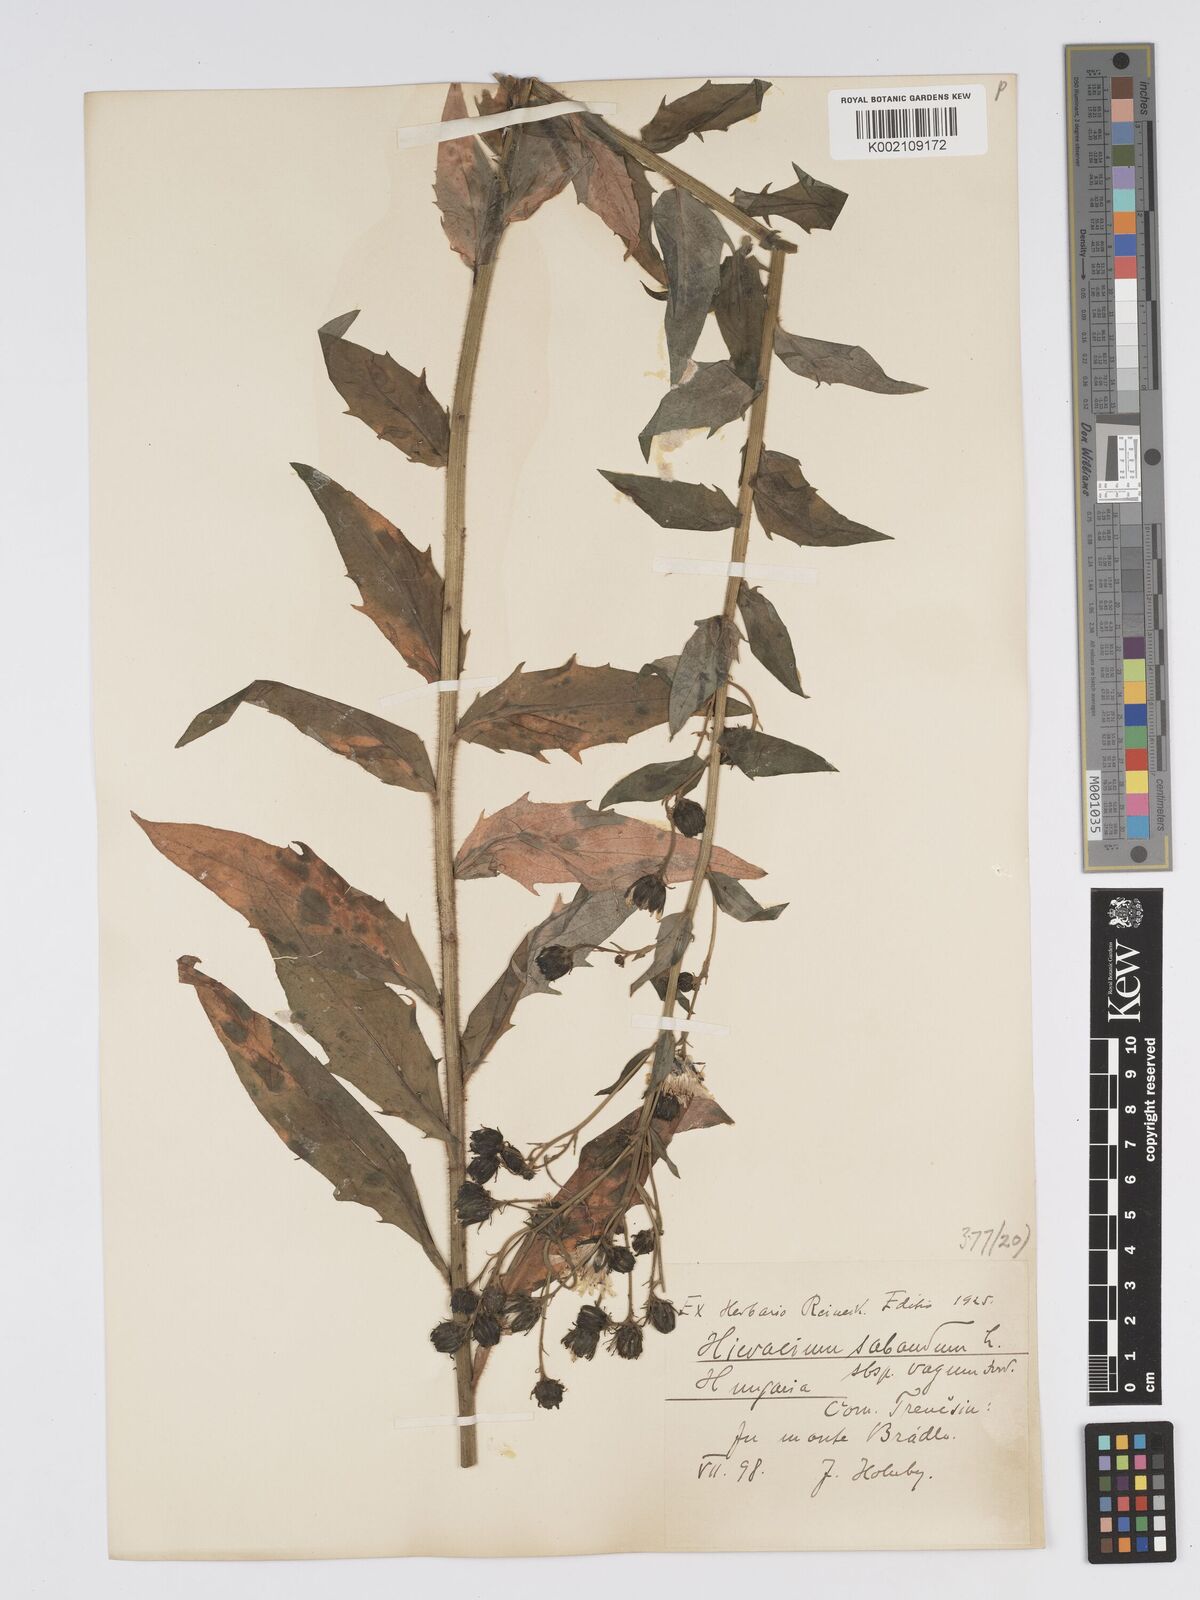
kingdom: Plantae
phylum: Tracheophyta
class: Magnoliopsida
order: Asterales
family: Asteraceae
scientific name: Asteraceae
